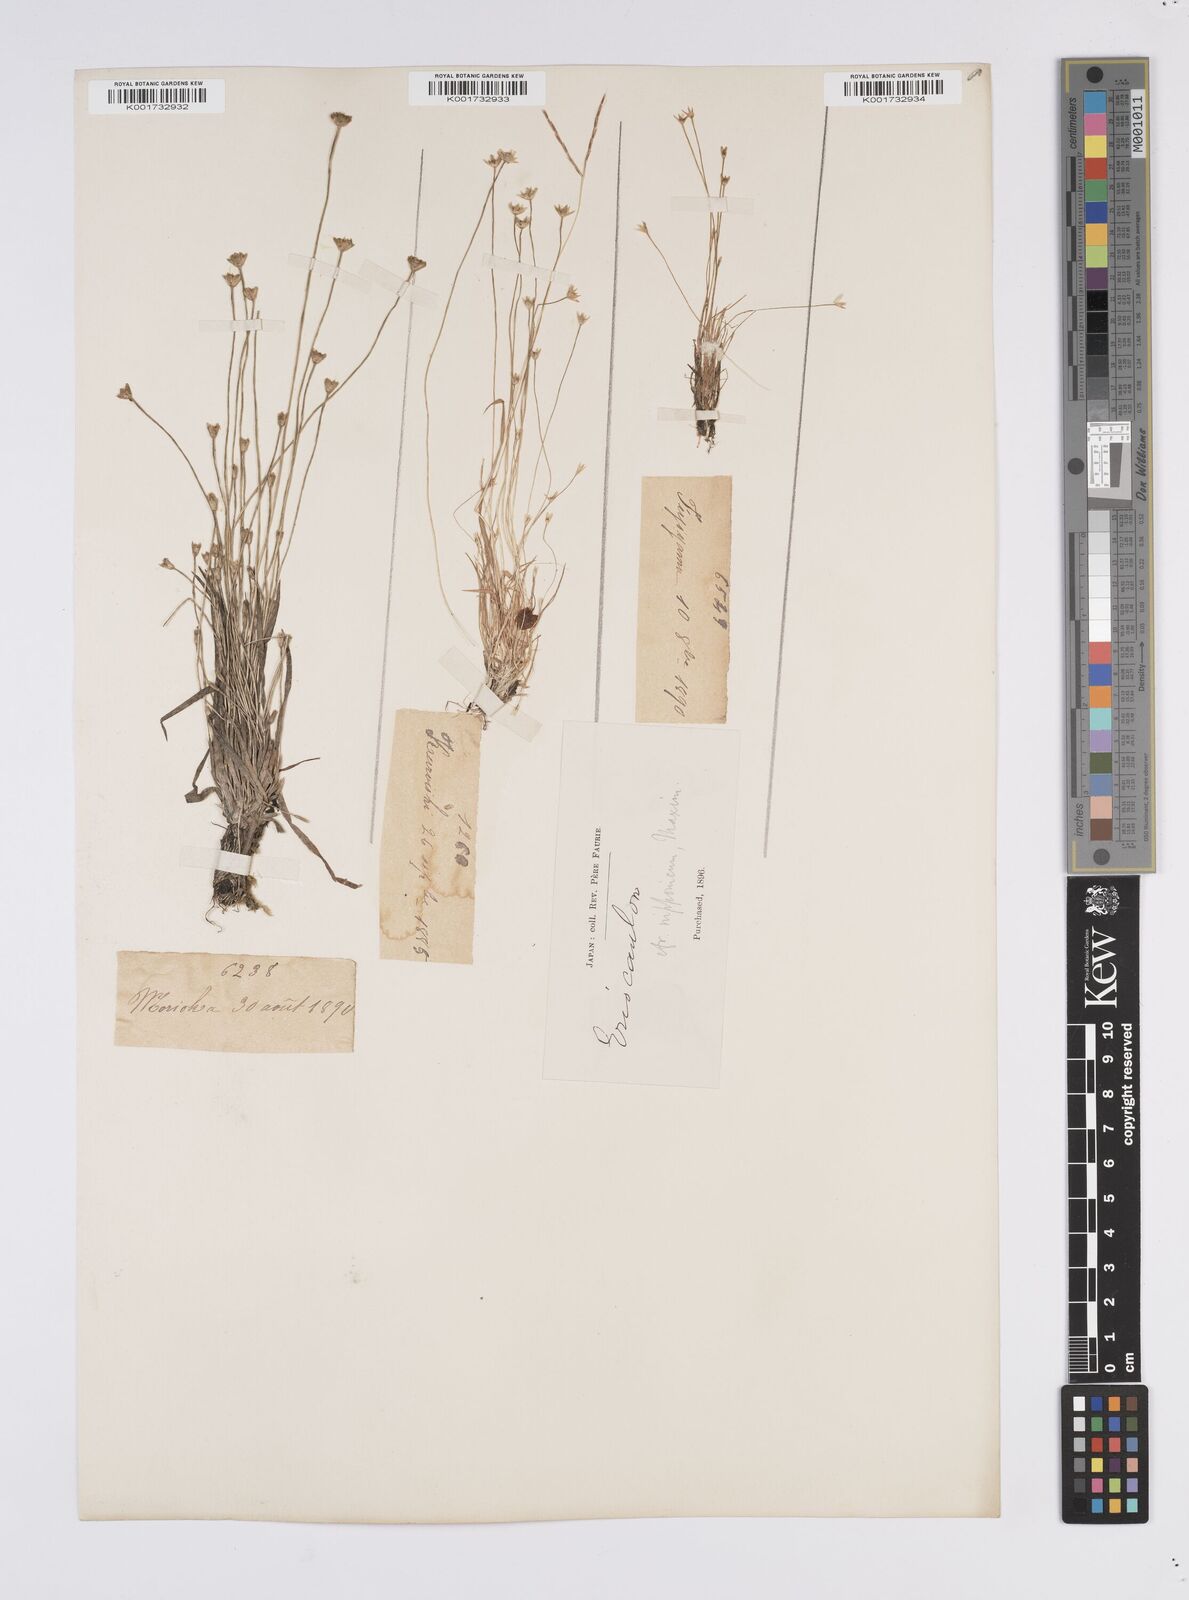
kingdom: Plantae
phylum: Tracheophyta
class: Liliopsida
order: Poales
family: Eriocaulaceae
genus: Eriocaulon
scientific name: Eriocaulon decemflorum
